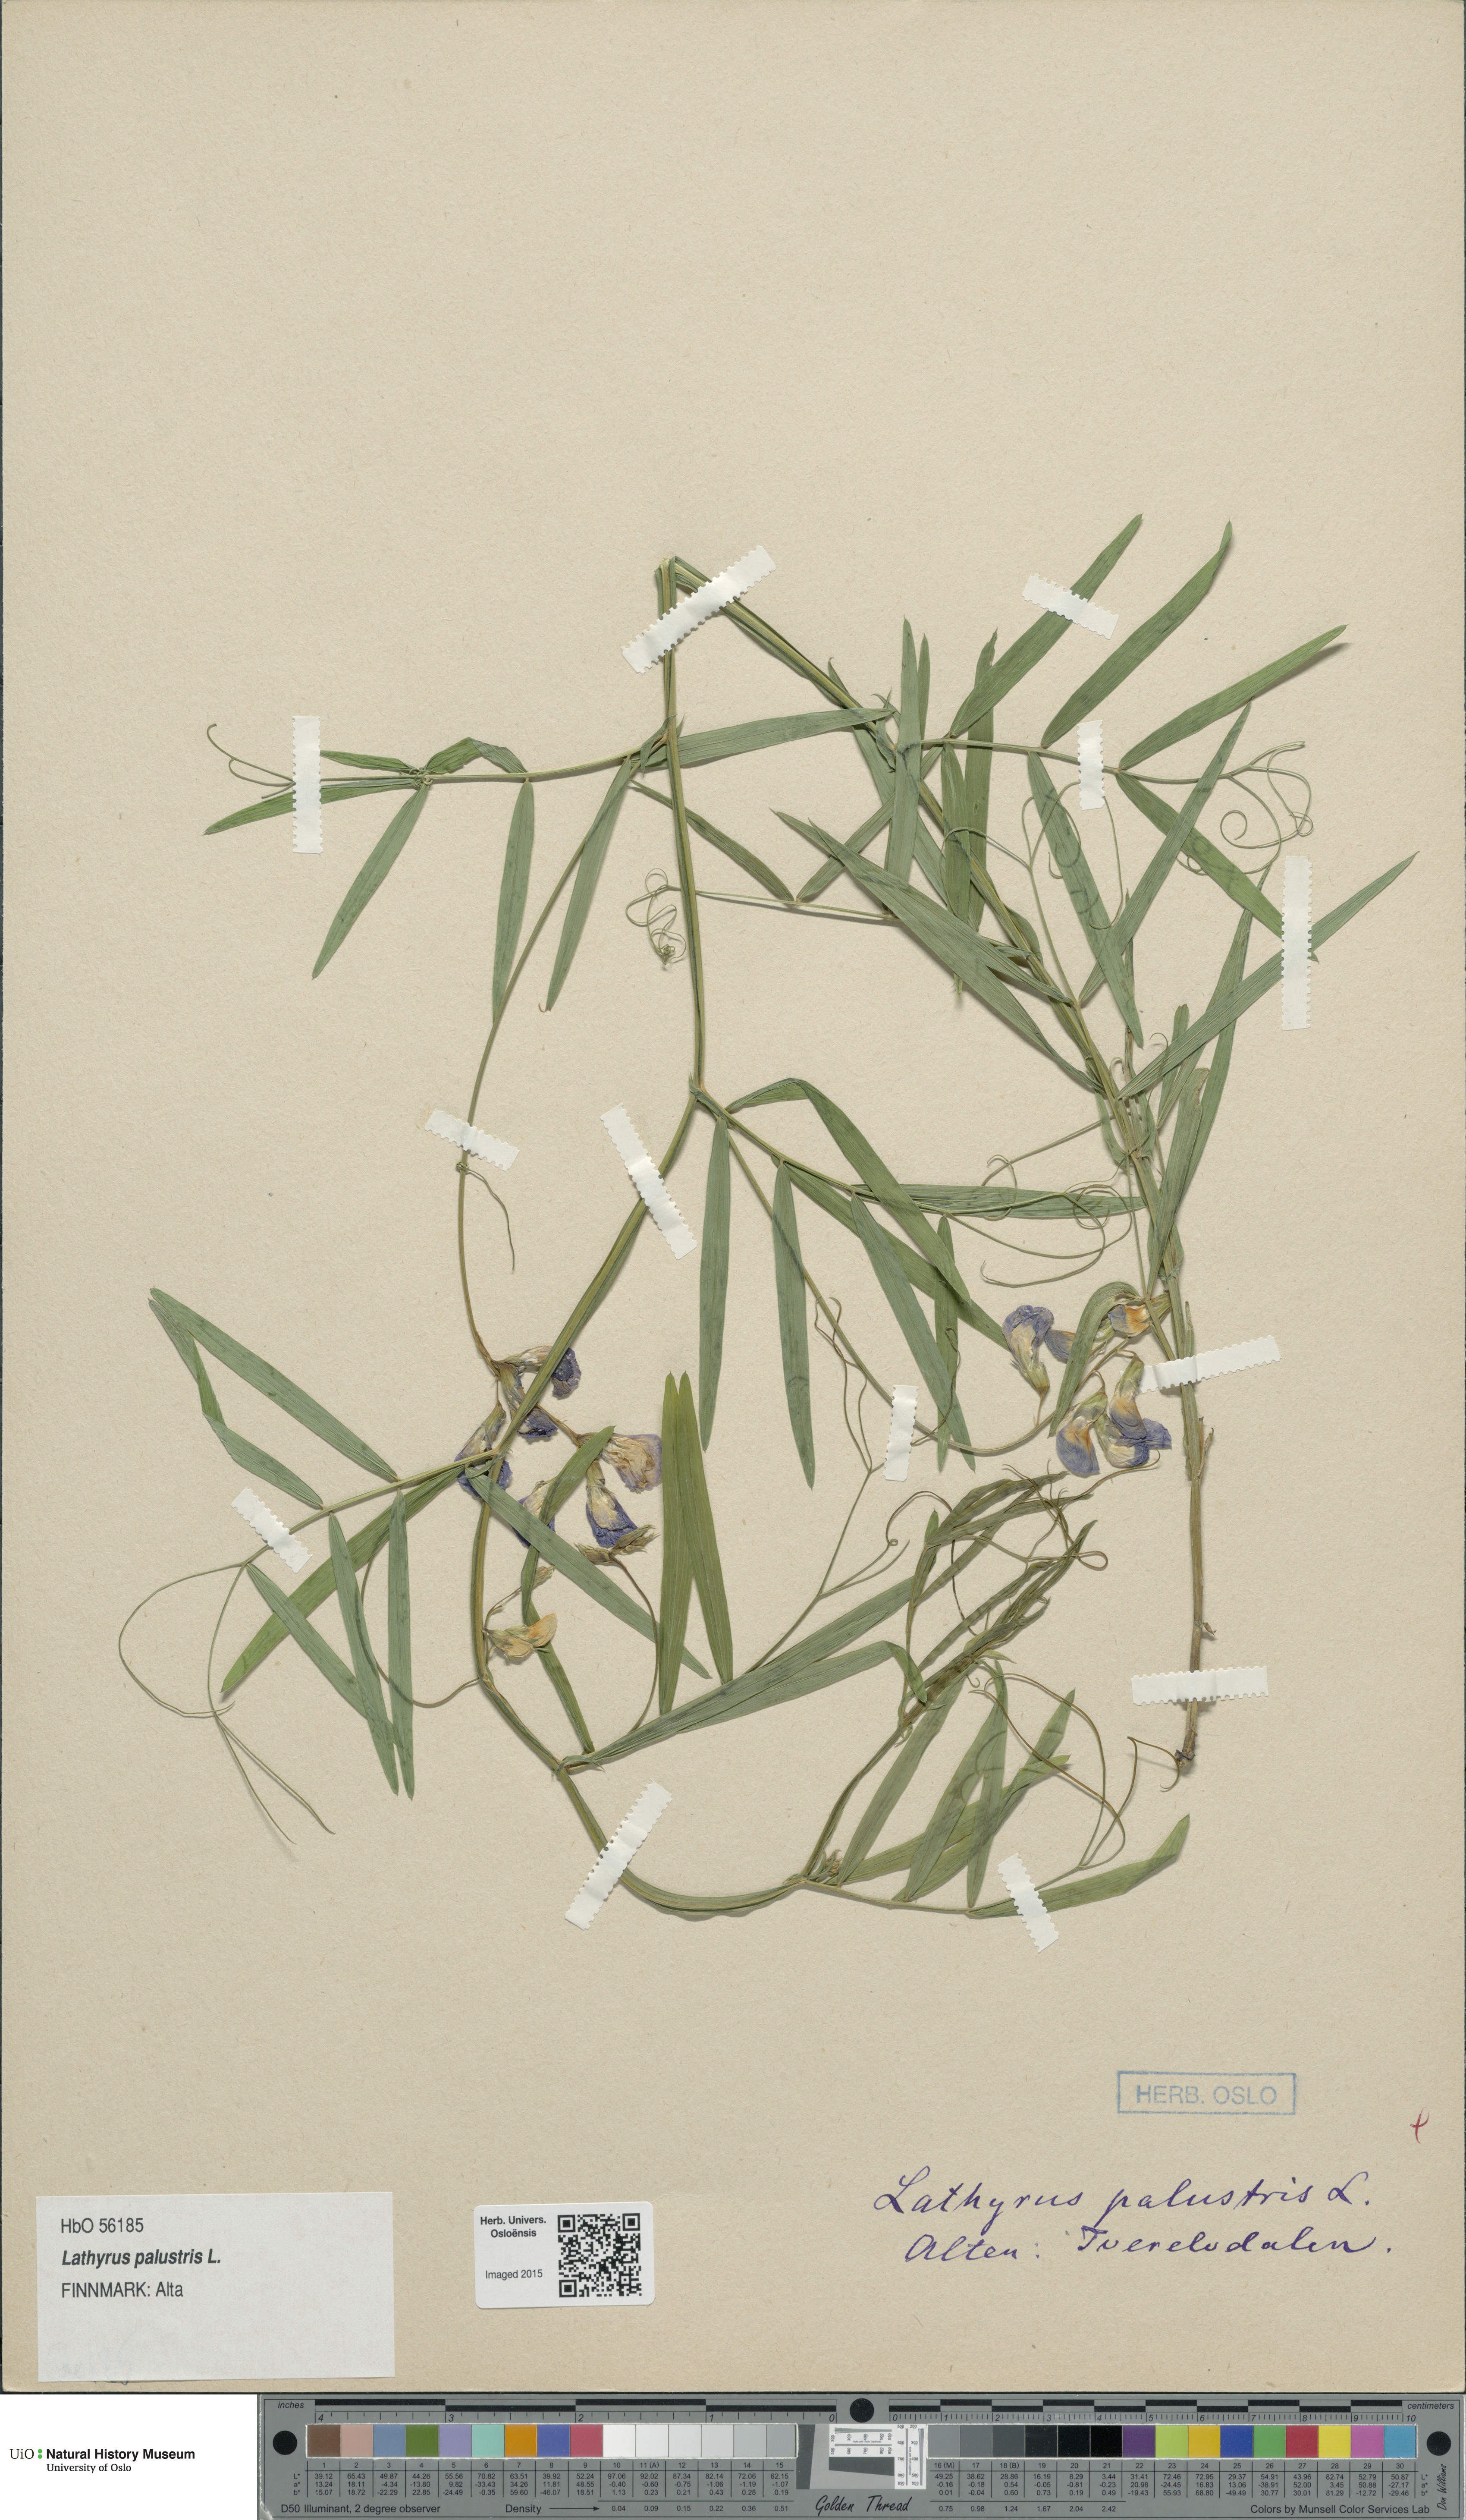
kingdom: Plantae
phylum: Tracheophyta
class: Magnoliopsida
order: Fabales
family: Fabaceae
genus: Lathyrus
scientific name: Lathyrus palustris
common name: Marsh pea
